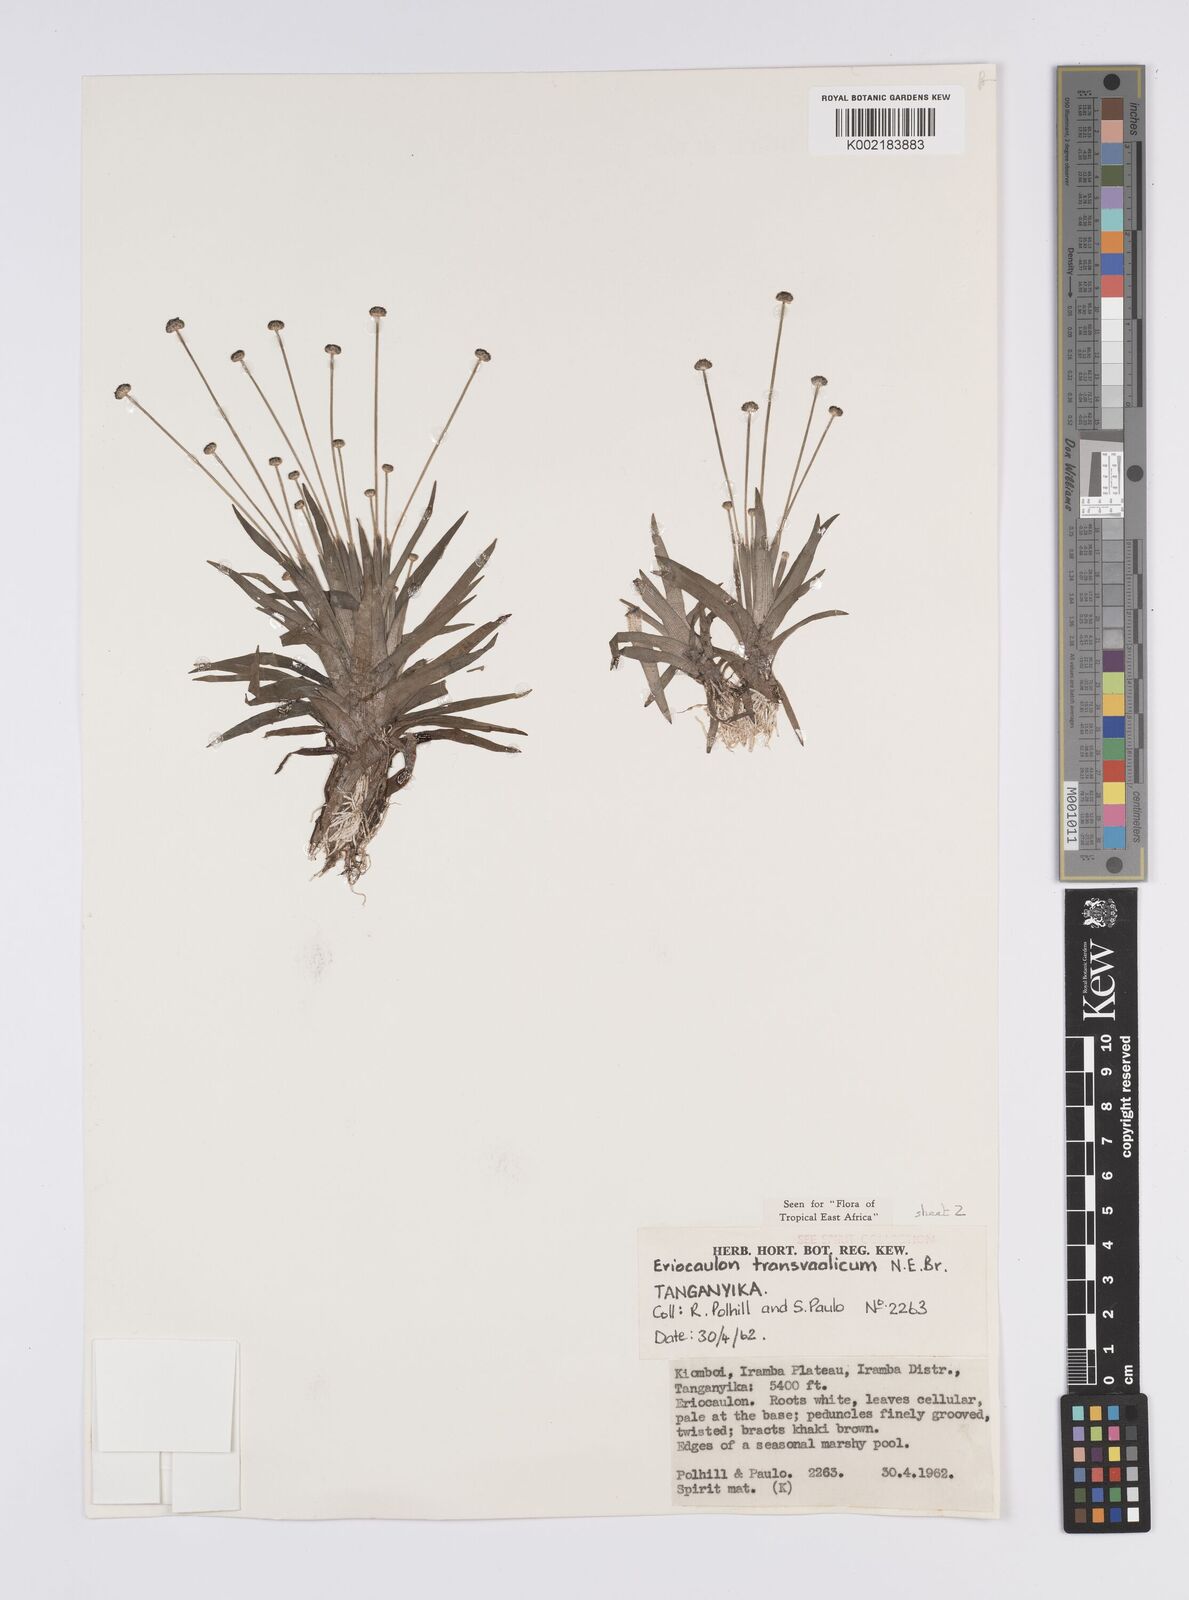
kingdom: Plantae
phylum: Tracheophyta
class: Liliopsida
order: Poales
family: Eriocaulaceae
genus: Eriocaulon
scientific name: Eriocaulon transvaalicum
